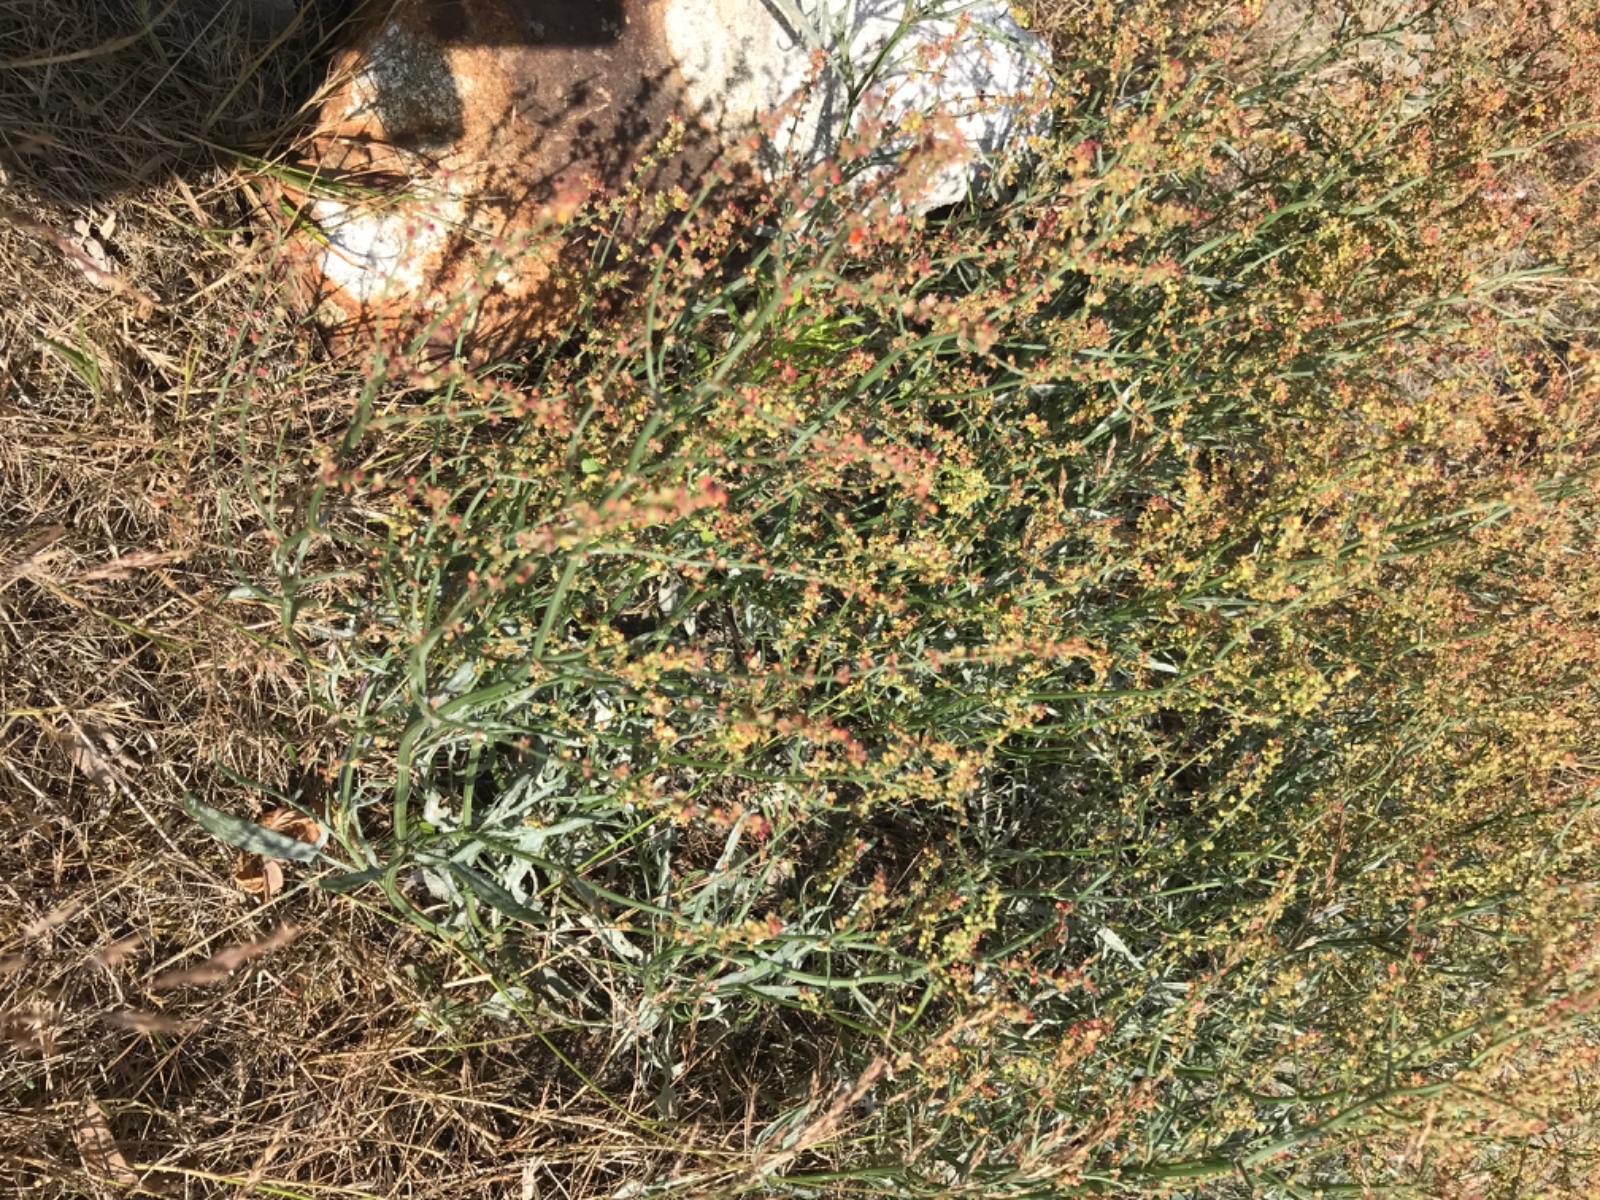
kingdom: Fungi
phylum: Ascomycota
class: Leotiomycetes
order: Helotiales
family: Erysiphaceae
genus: Erysiphe
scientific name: Erysiphe polygoni
